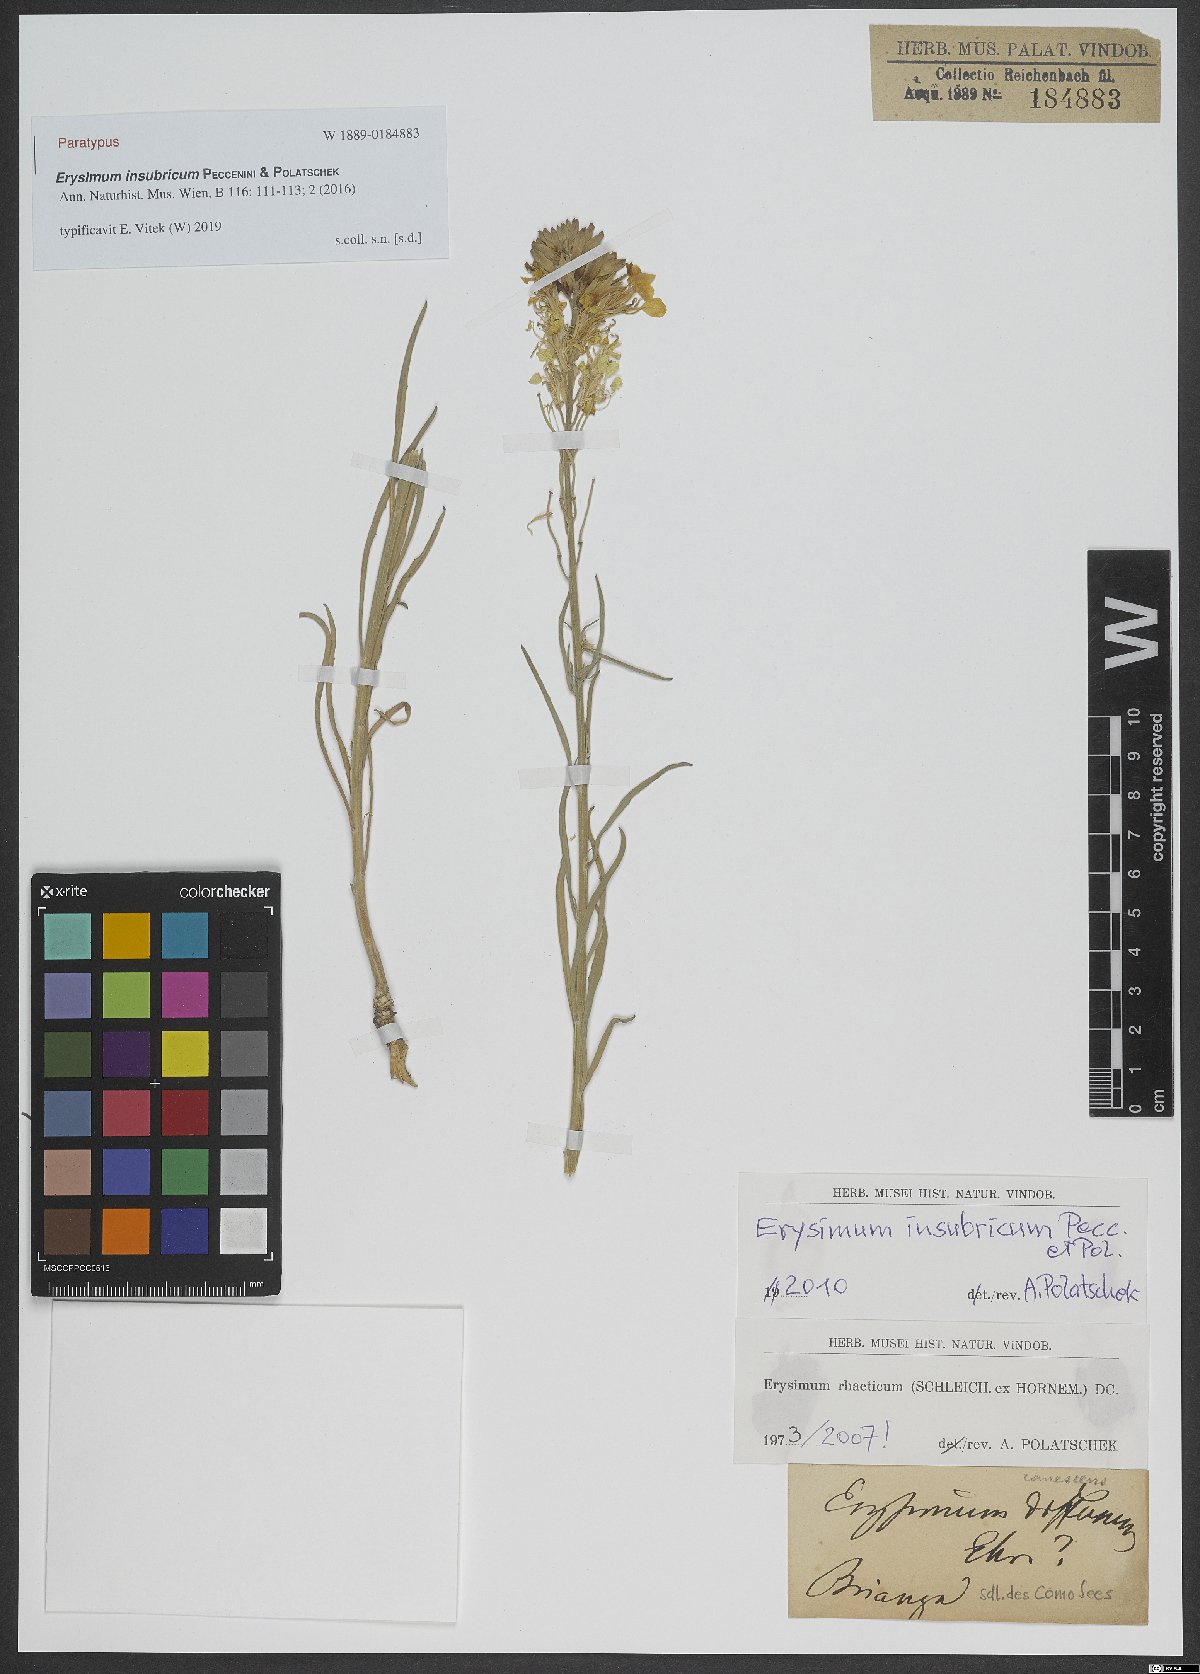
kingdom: Plantae
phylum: Tracheophyta
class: Magnoliopsida
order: Brassicales
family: Brassicaceae
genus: Erysimum
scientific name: Erysimum insubricum
